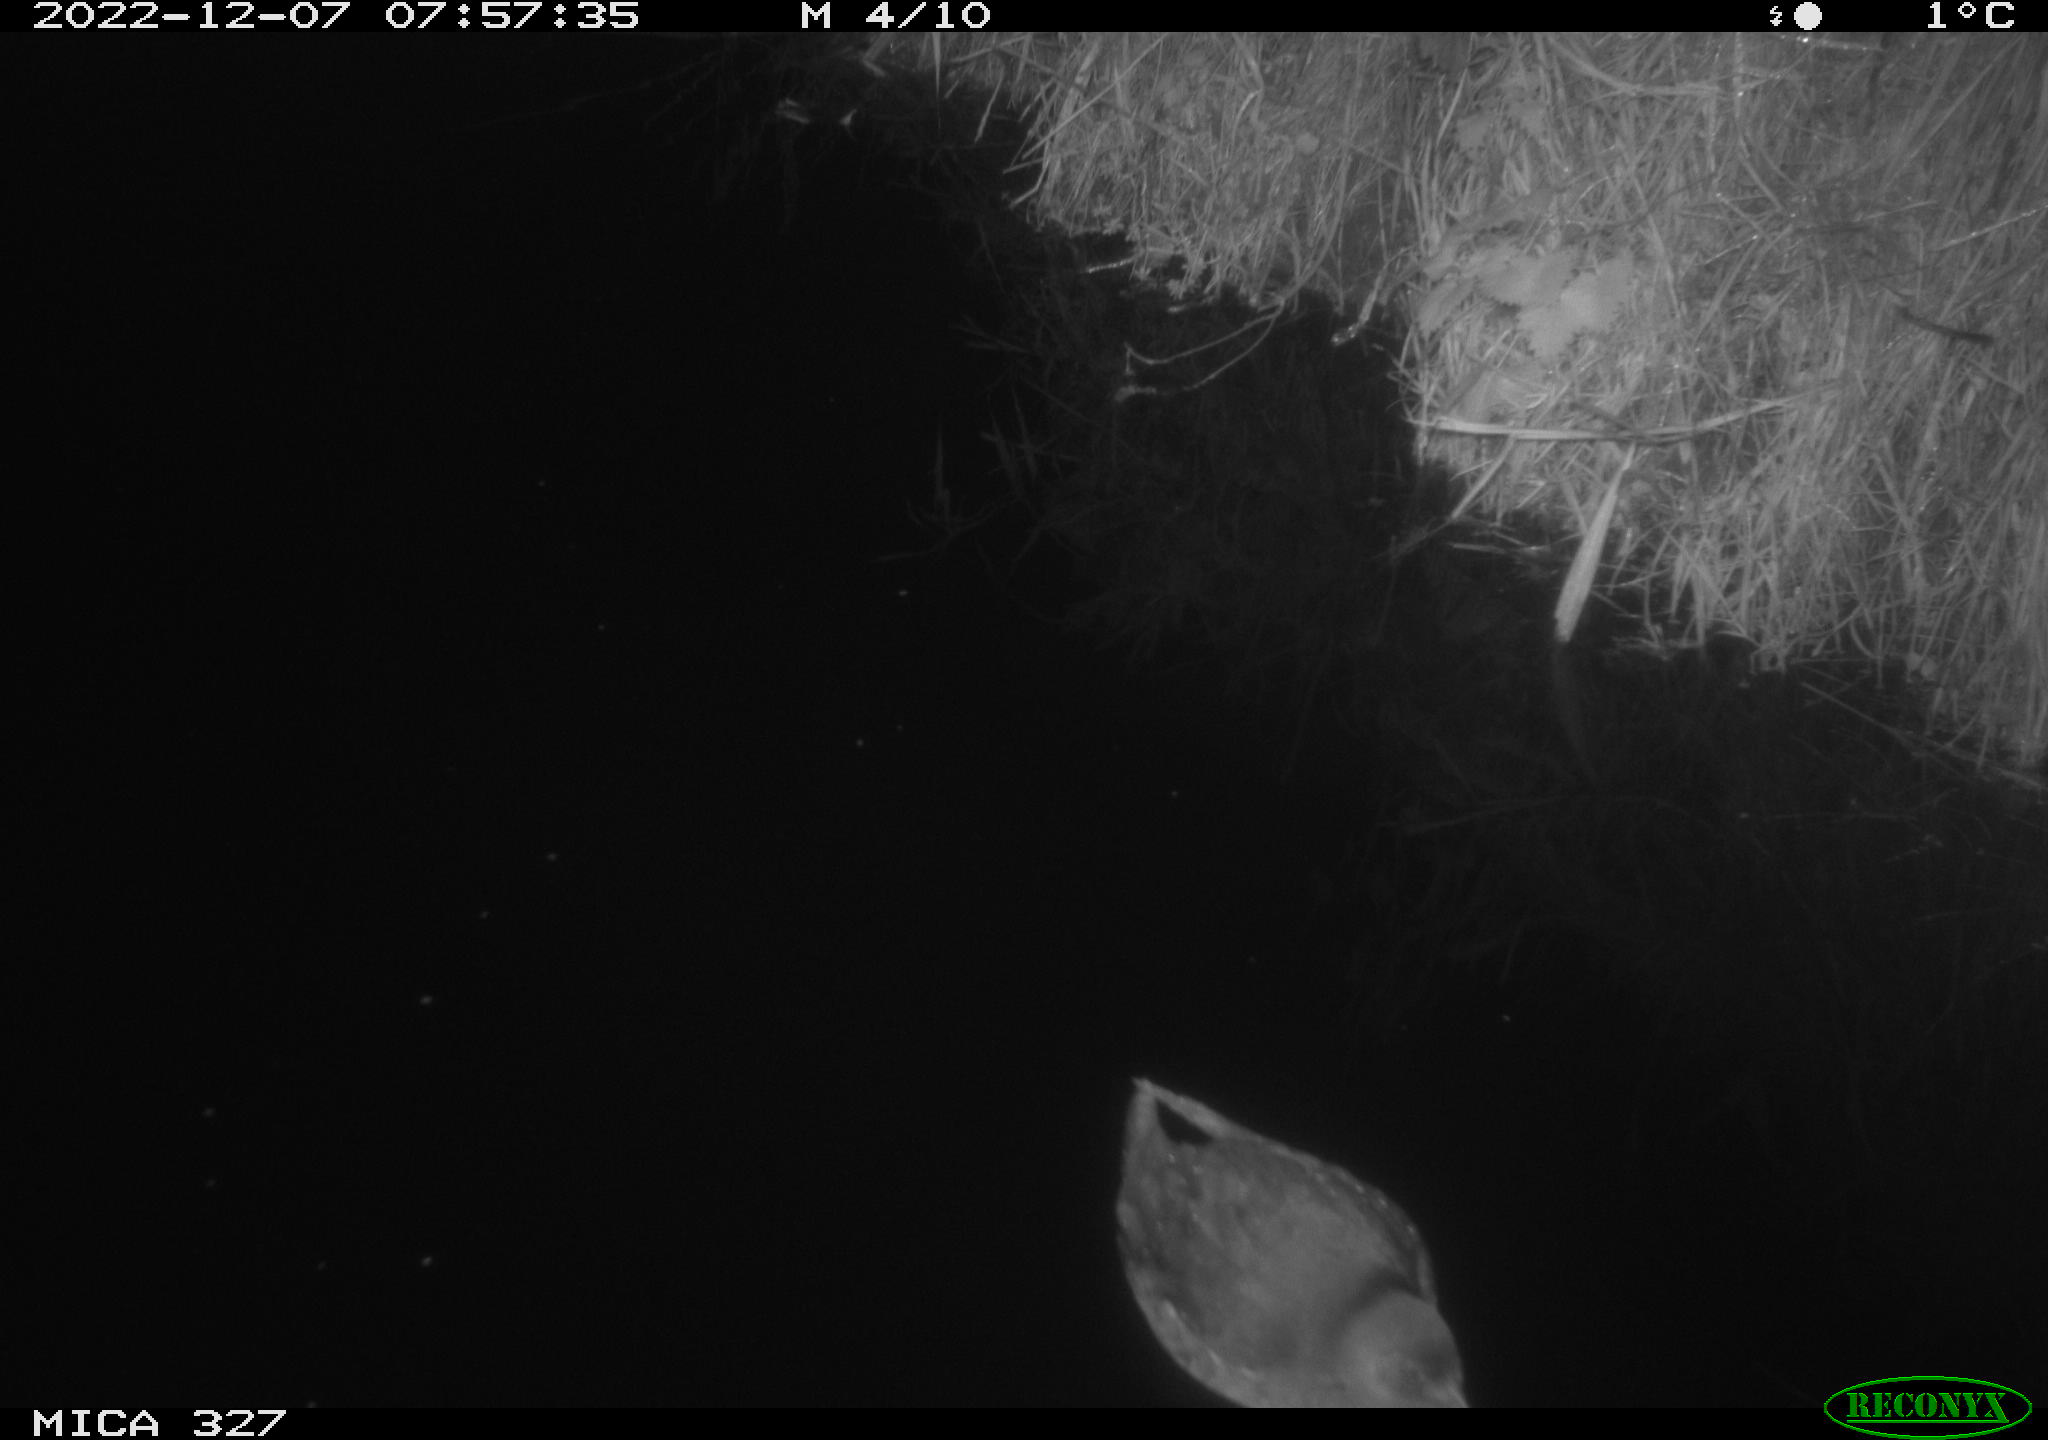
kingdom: Animalia
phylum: Chordata
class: Aves
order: Gruiformes
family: Rallidae
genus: Gallinula
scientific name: Gallinula chloropus
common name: Common moorhen
